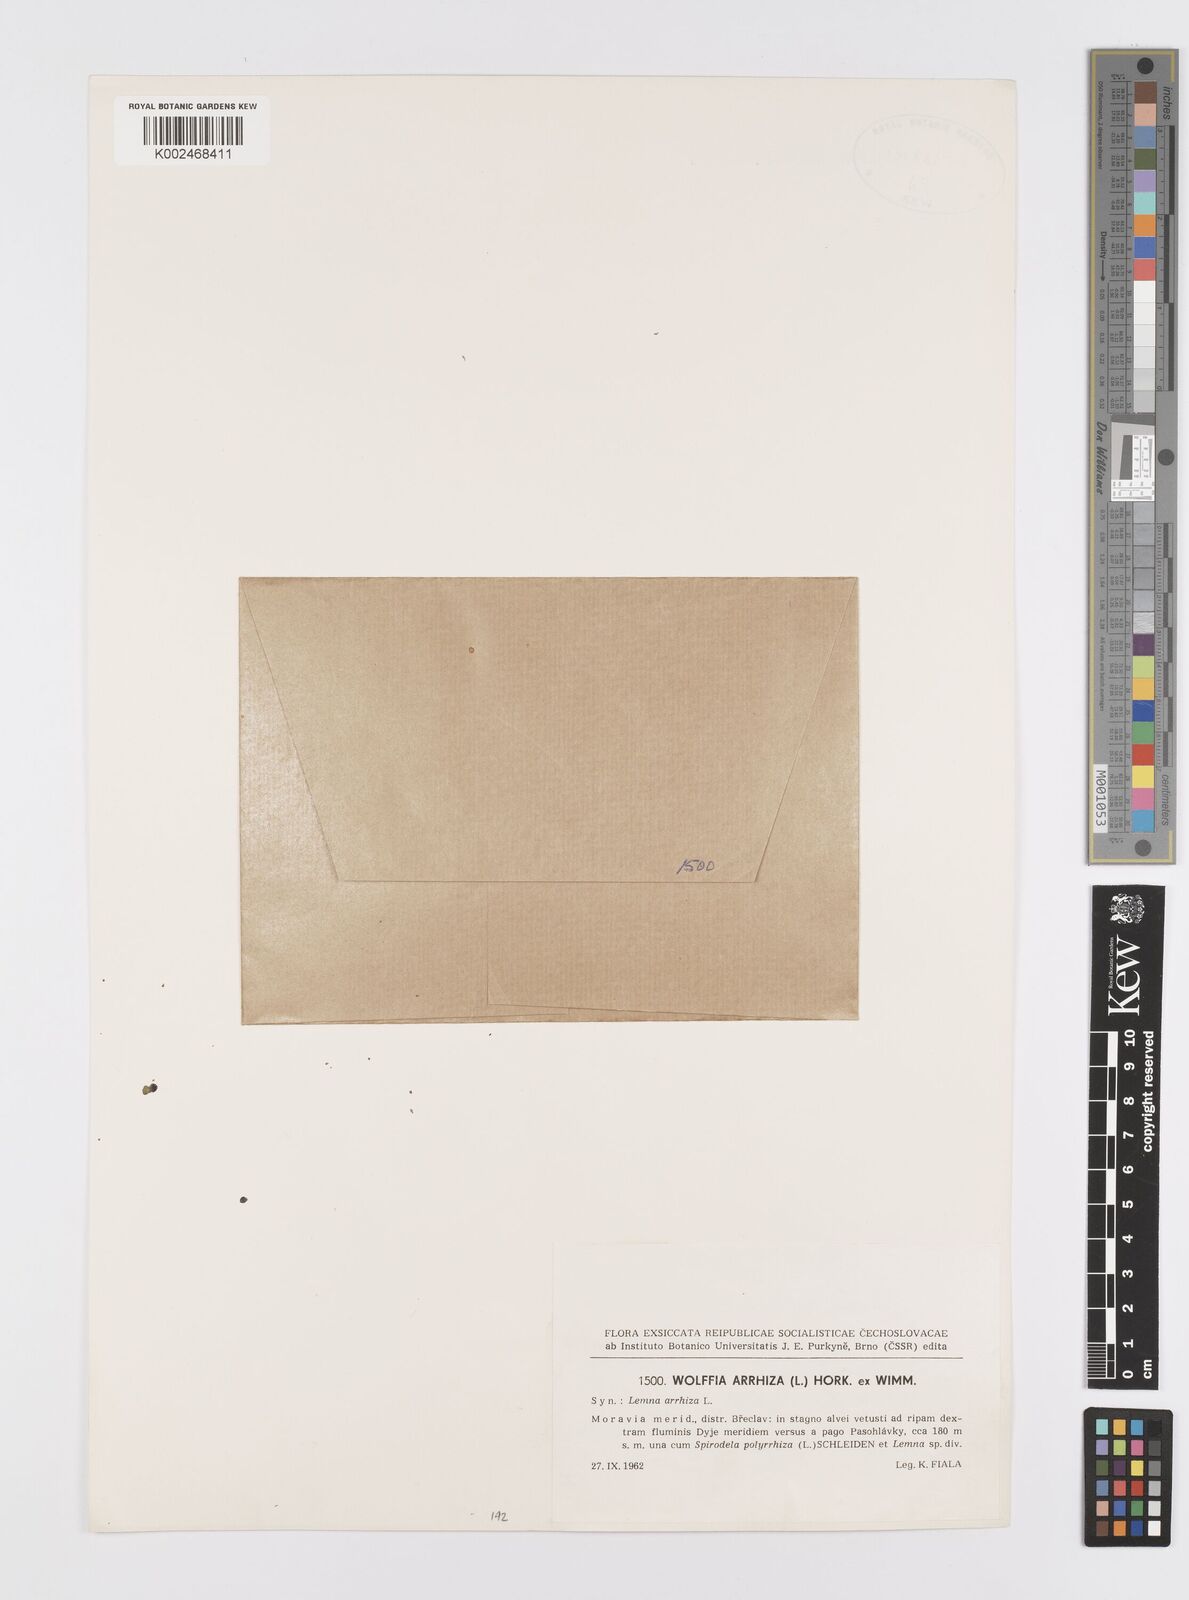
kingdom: Plantae
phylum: Tracheophyta
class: Liliopsida
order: Alismatales
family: Araceae
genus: Wolffia
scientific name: Wolffia arrhiza
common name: Rootless duckweed
